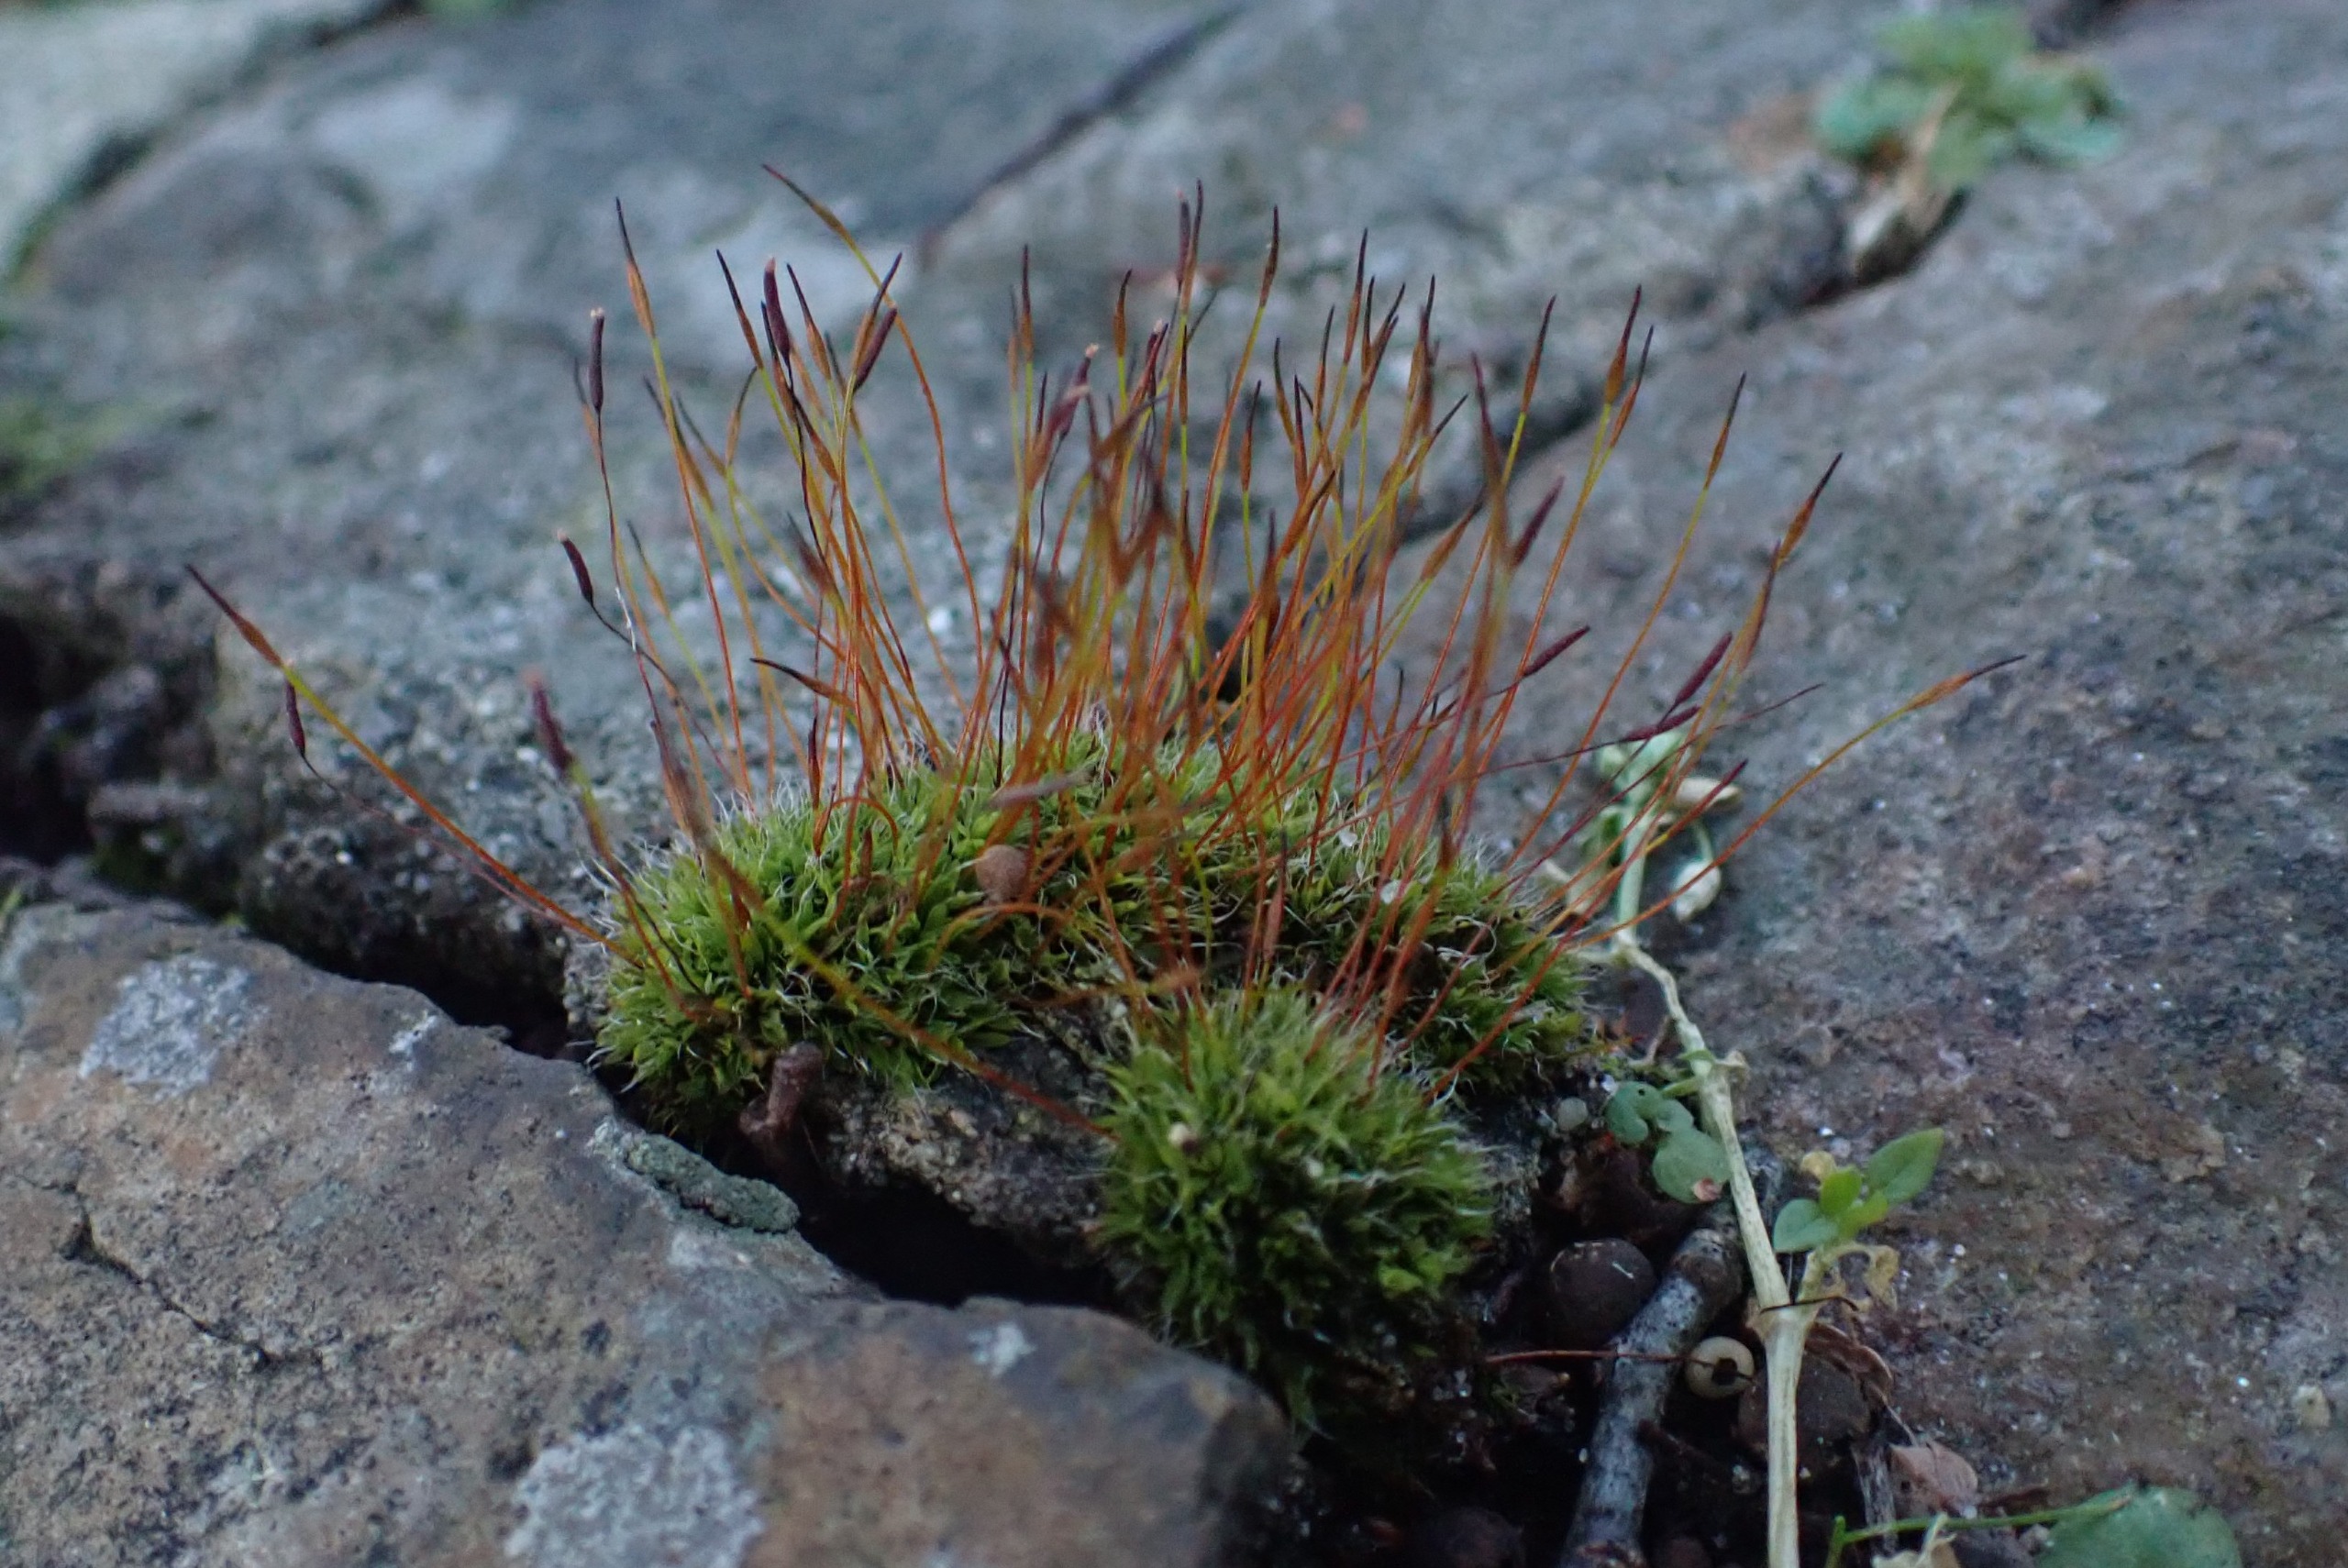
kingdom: Plantae
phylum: Bryophyta
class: Bryopsida
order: Pottiales
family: Pottiaceae
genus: Tortula
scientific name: Tortula muralis
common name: Mur-snotand
